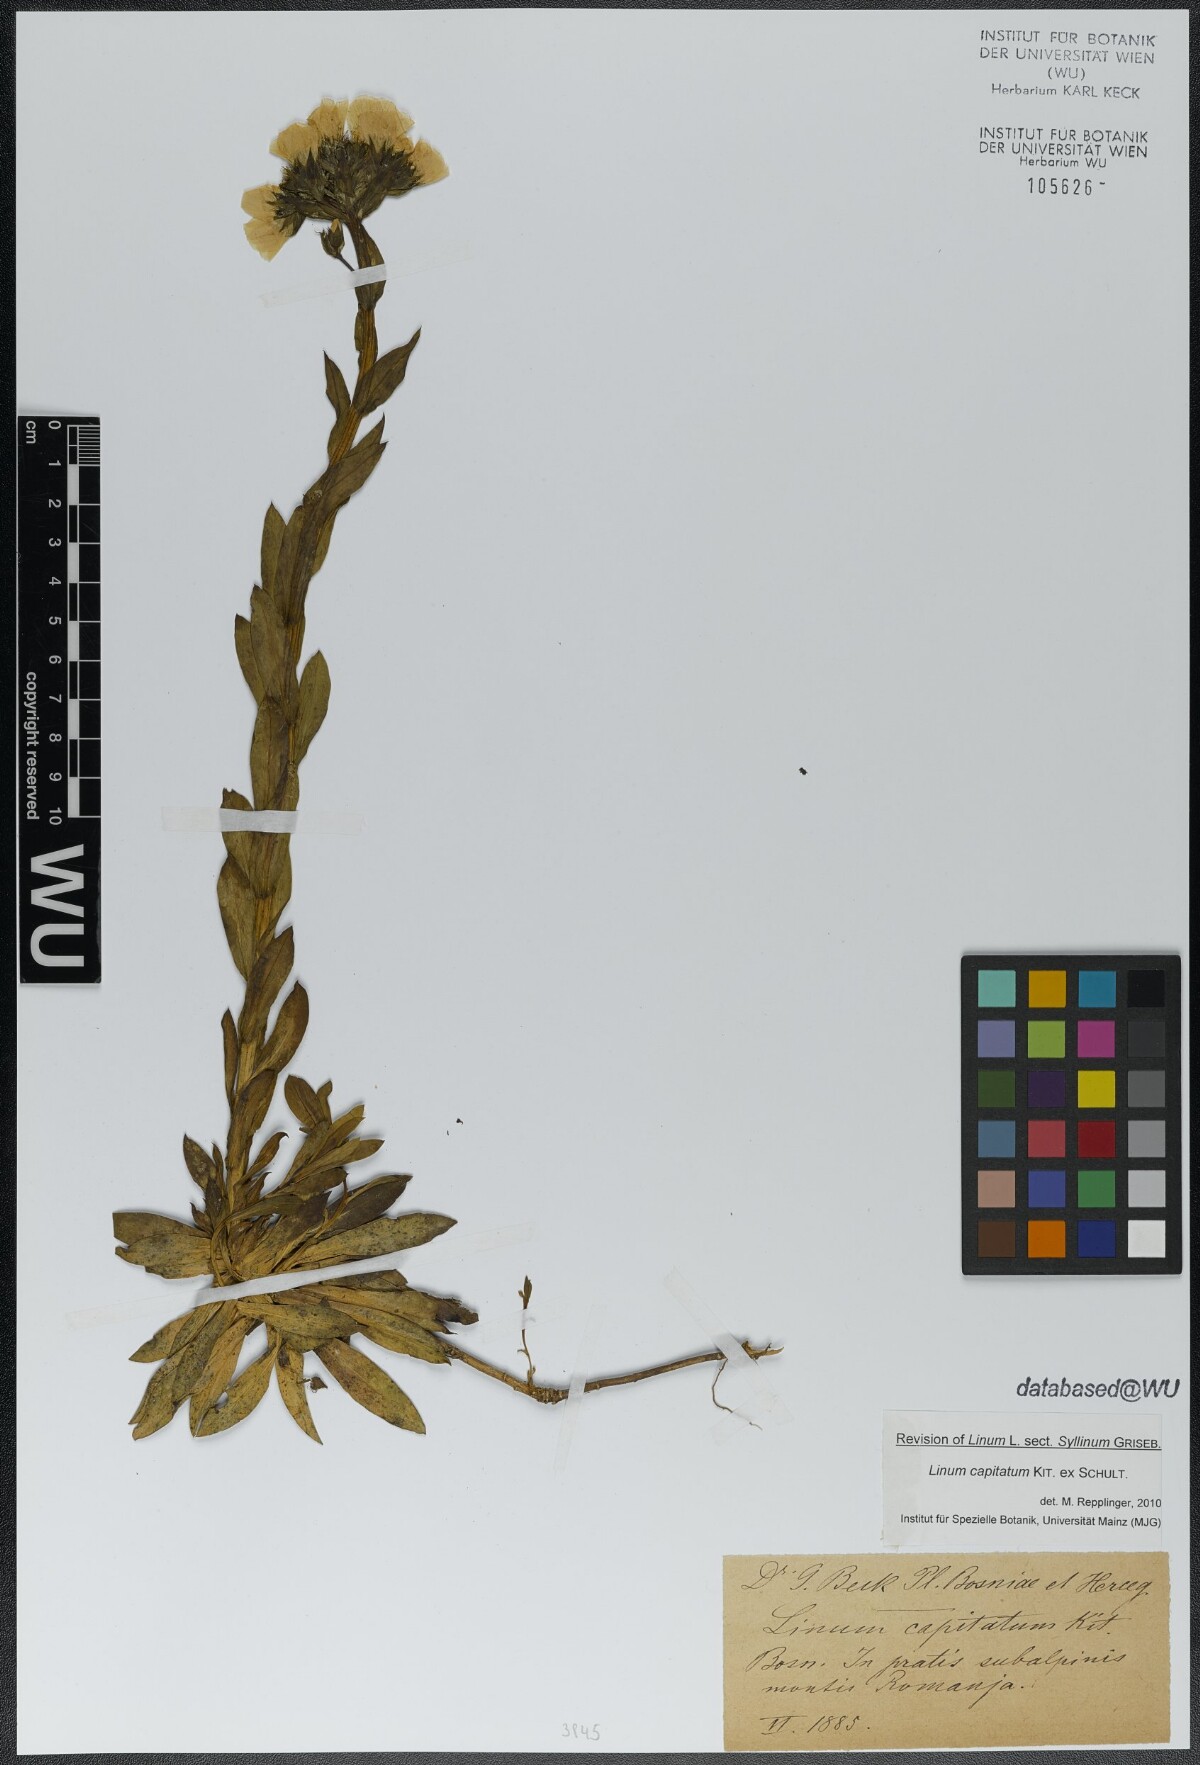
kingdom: Plantae
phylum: Tracheophyta
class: Magnoliopsida
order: Malpighiales
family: Linaceae
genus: Linum
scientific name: Linum capitatum
